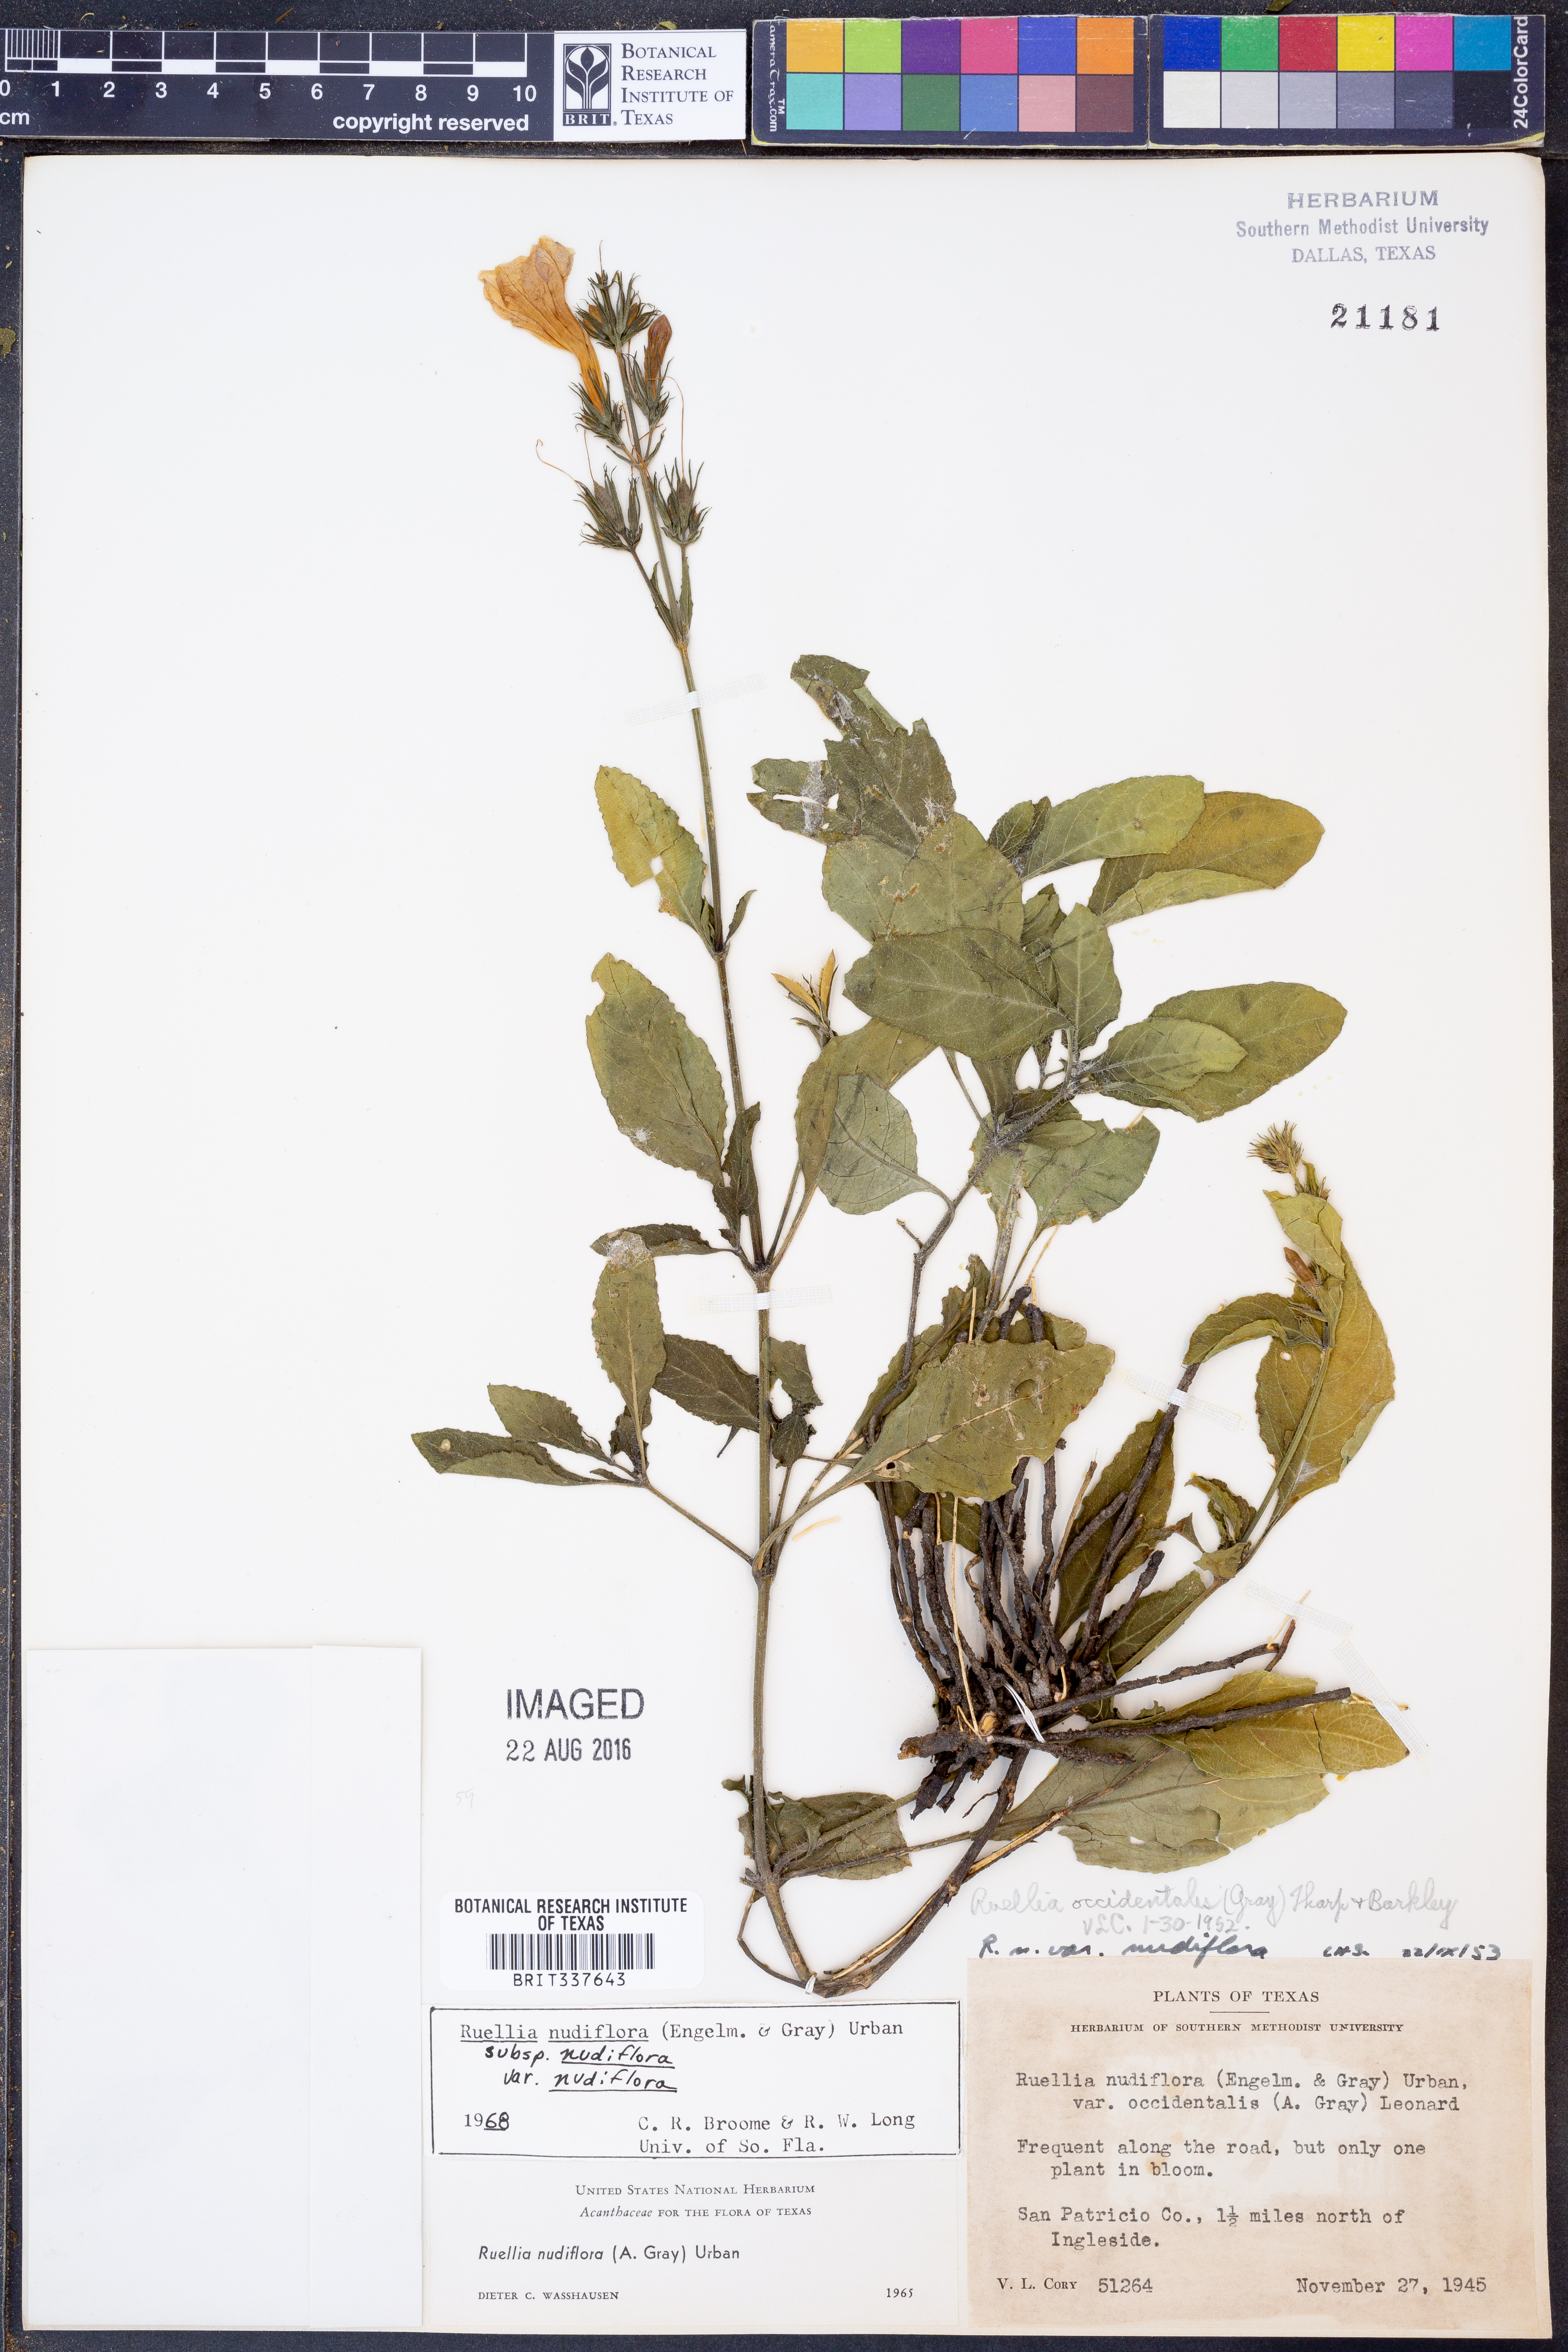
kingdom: Plantae
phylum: Tracheophyta
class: Magnoliopsida
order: Lamiales
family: Acanthaceae
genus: Ruellia
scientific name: Ruellia ciliatiflora
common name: Hairyflower wild petunia
